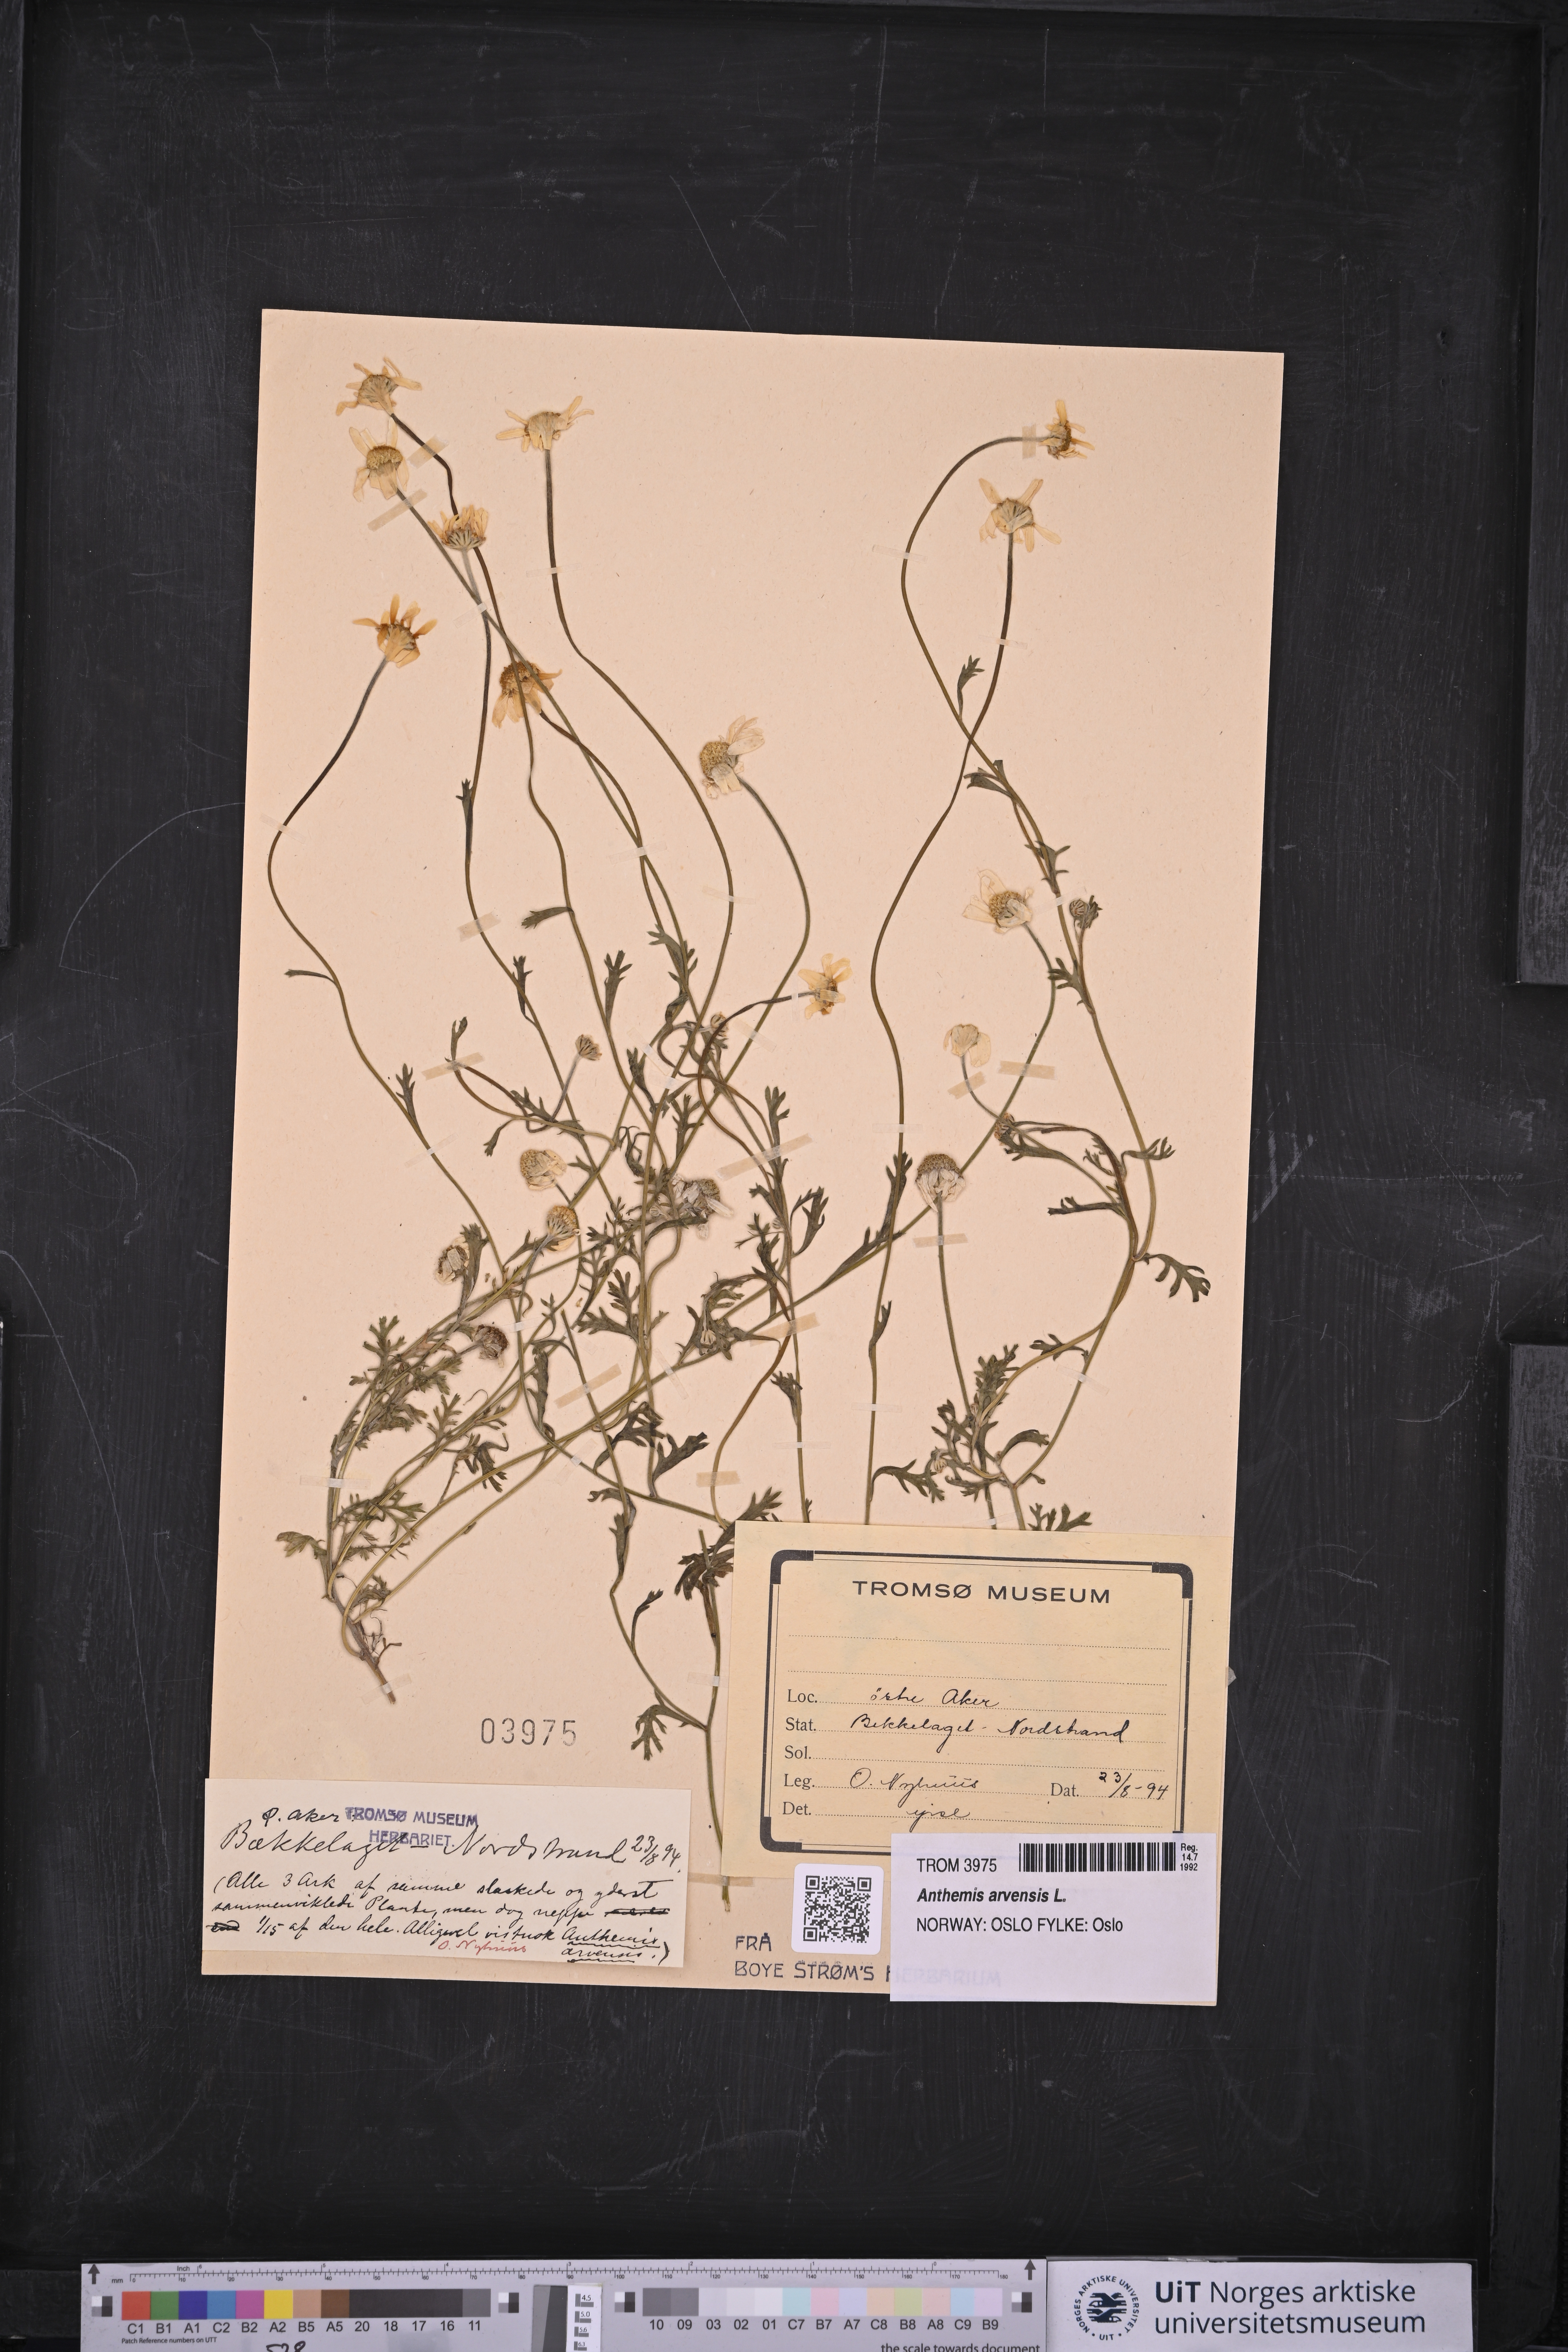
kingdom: Plantae
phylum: Tracheophyta
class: Magnoliopsida
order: Asterales
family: Asteraceae
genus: Anthemis
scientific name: Anthemis arvensis
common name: Corn chamomile
